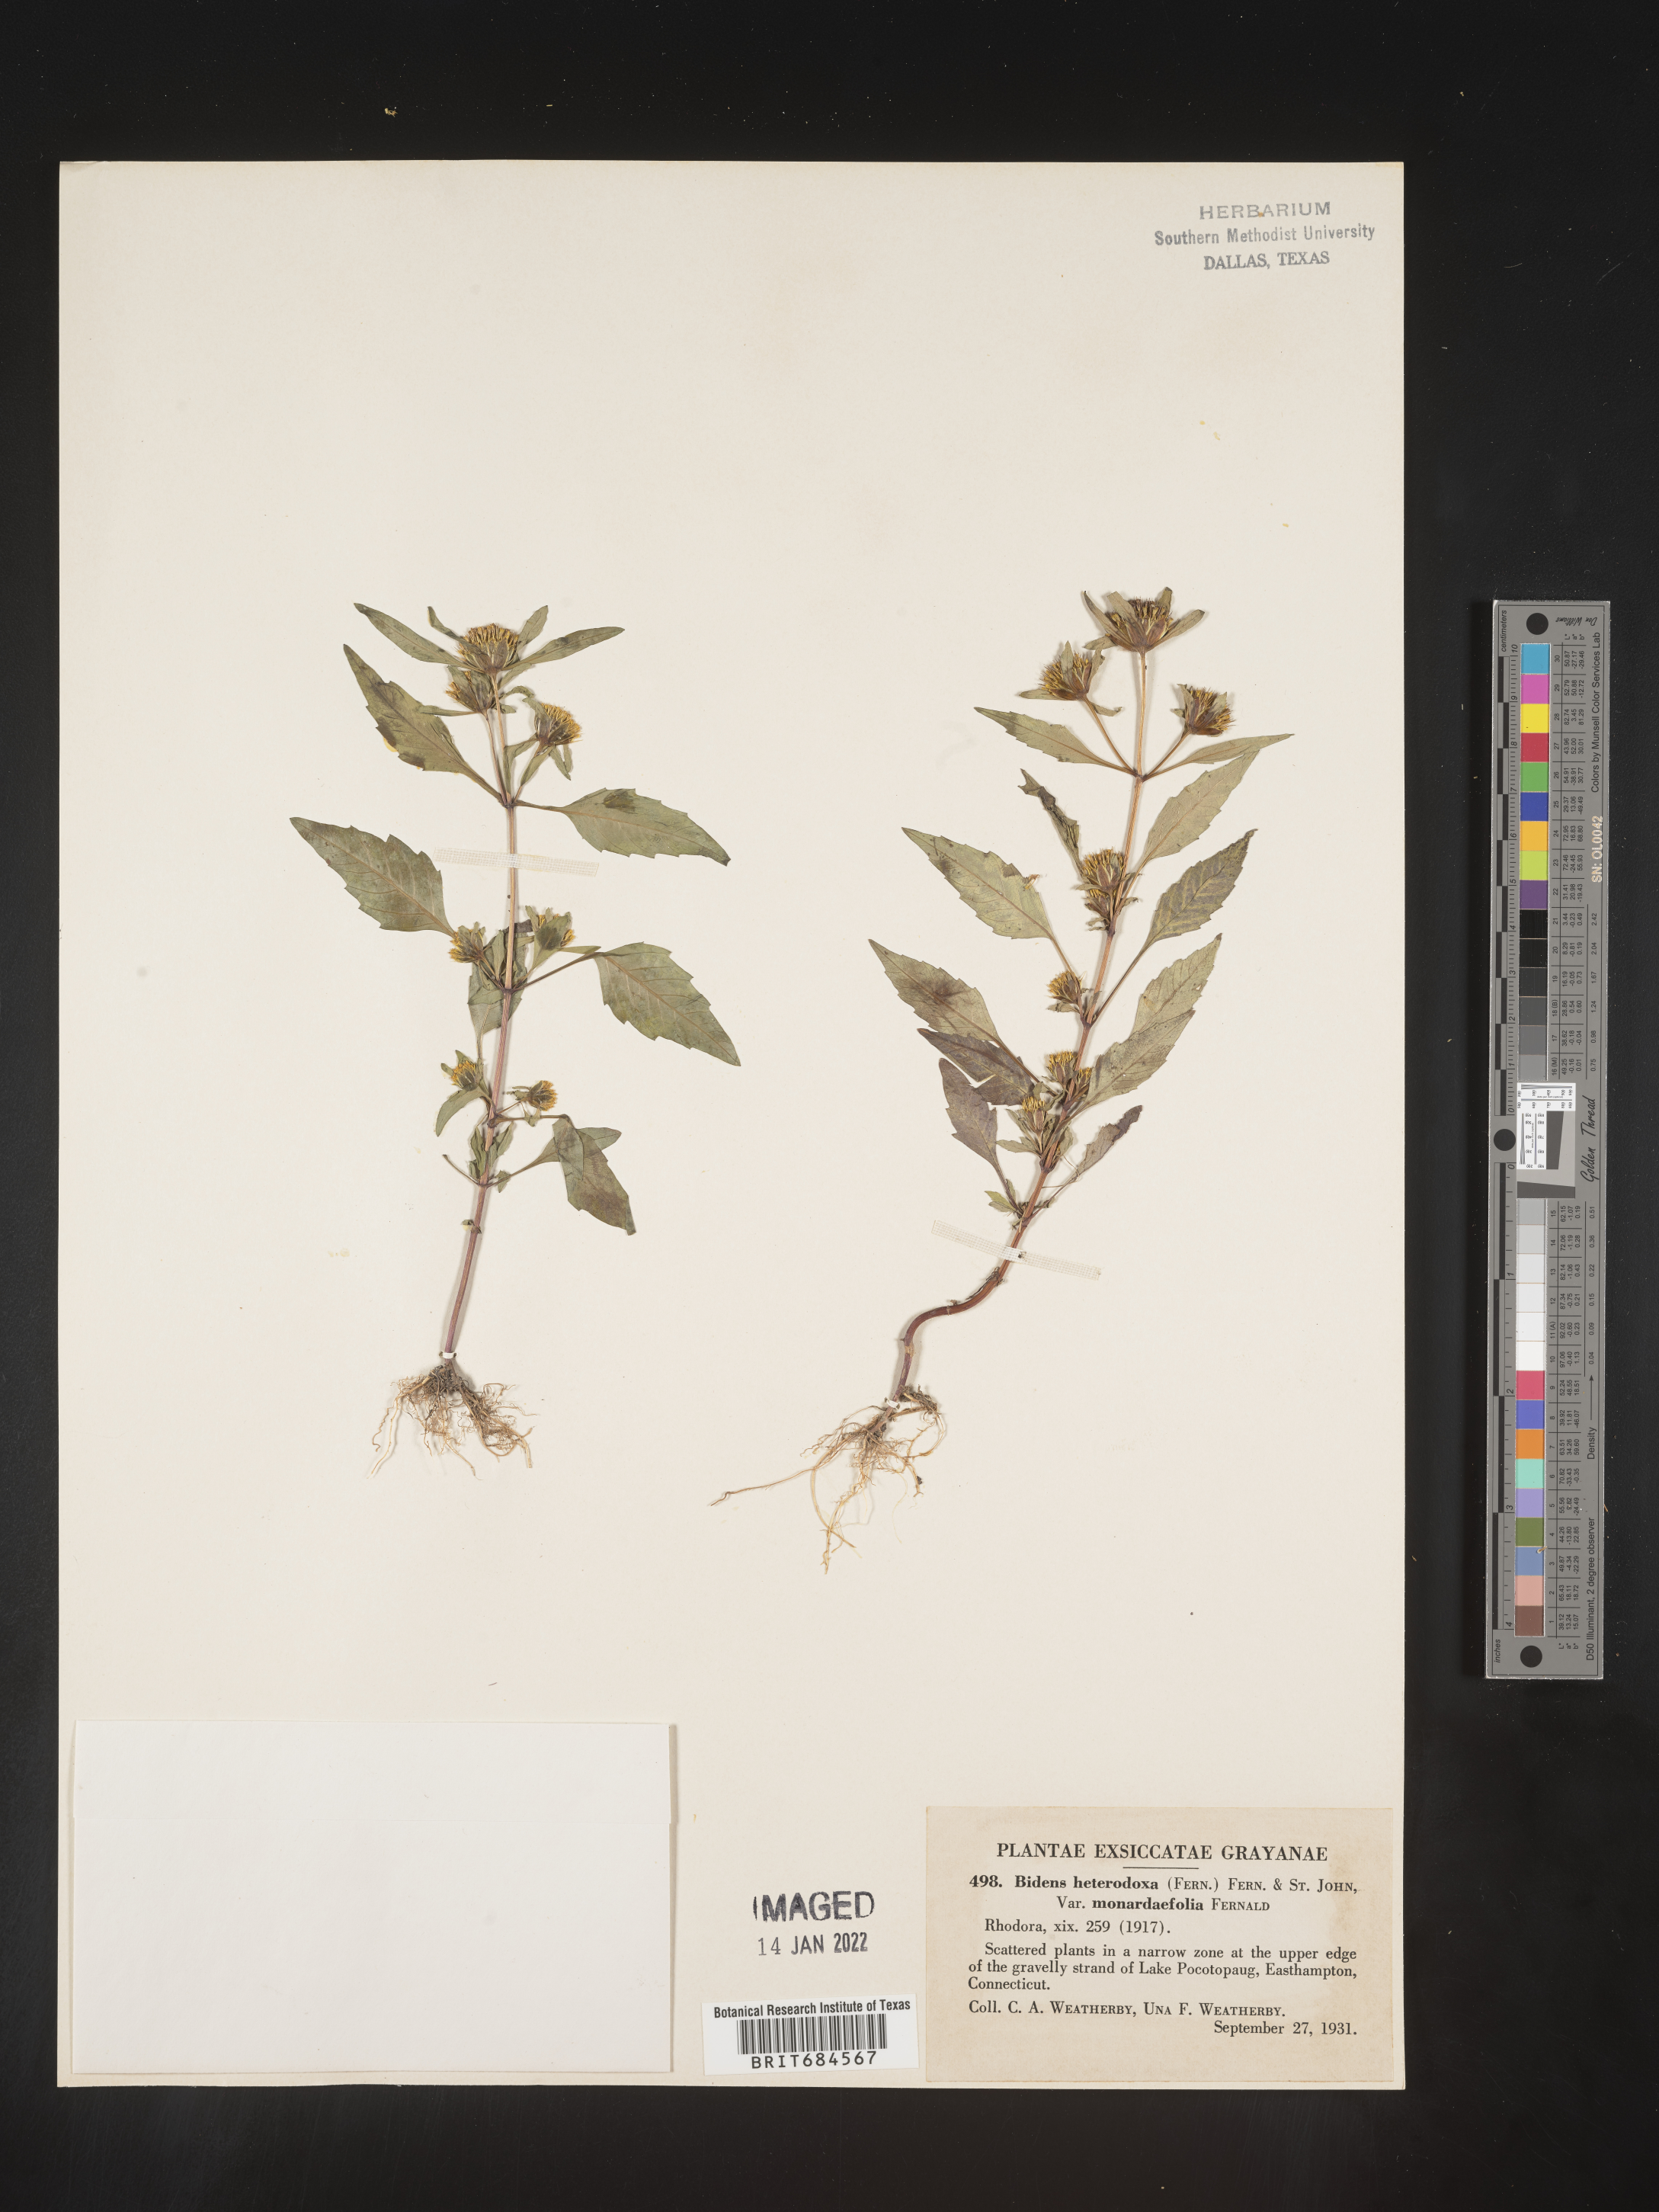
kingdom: Plantae
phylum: Tracheophyta
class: Magnoliopsida
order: Asterales
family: Asteraceae
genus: Bidens
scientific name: Bidens eatonii
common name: Eaton's beggarticks
